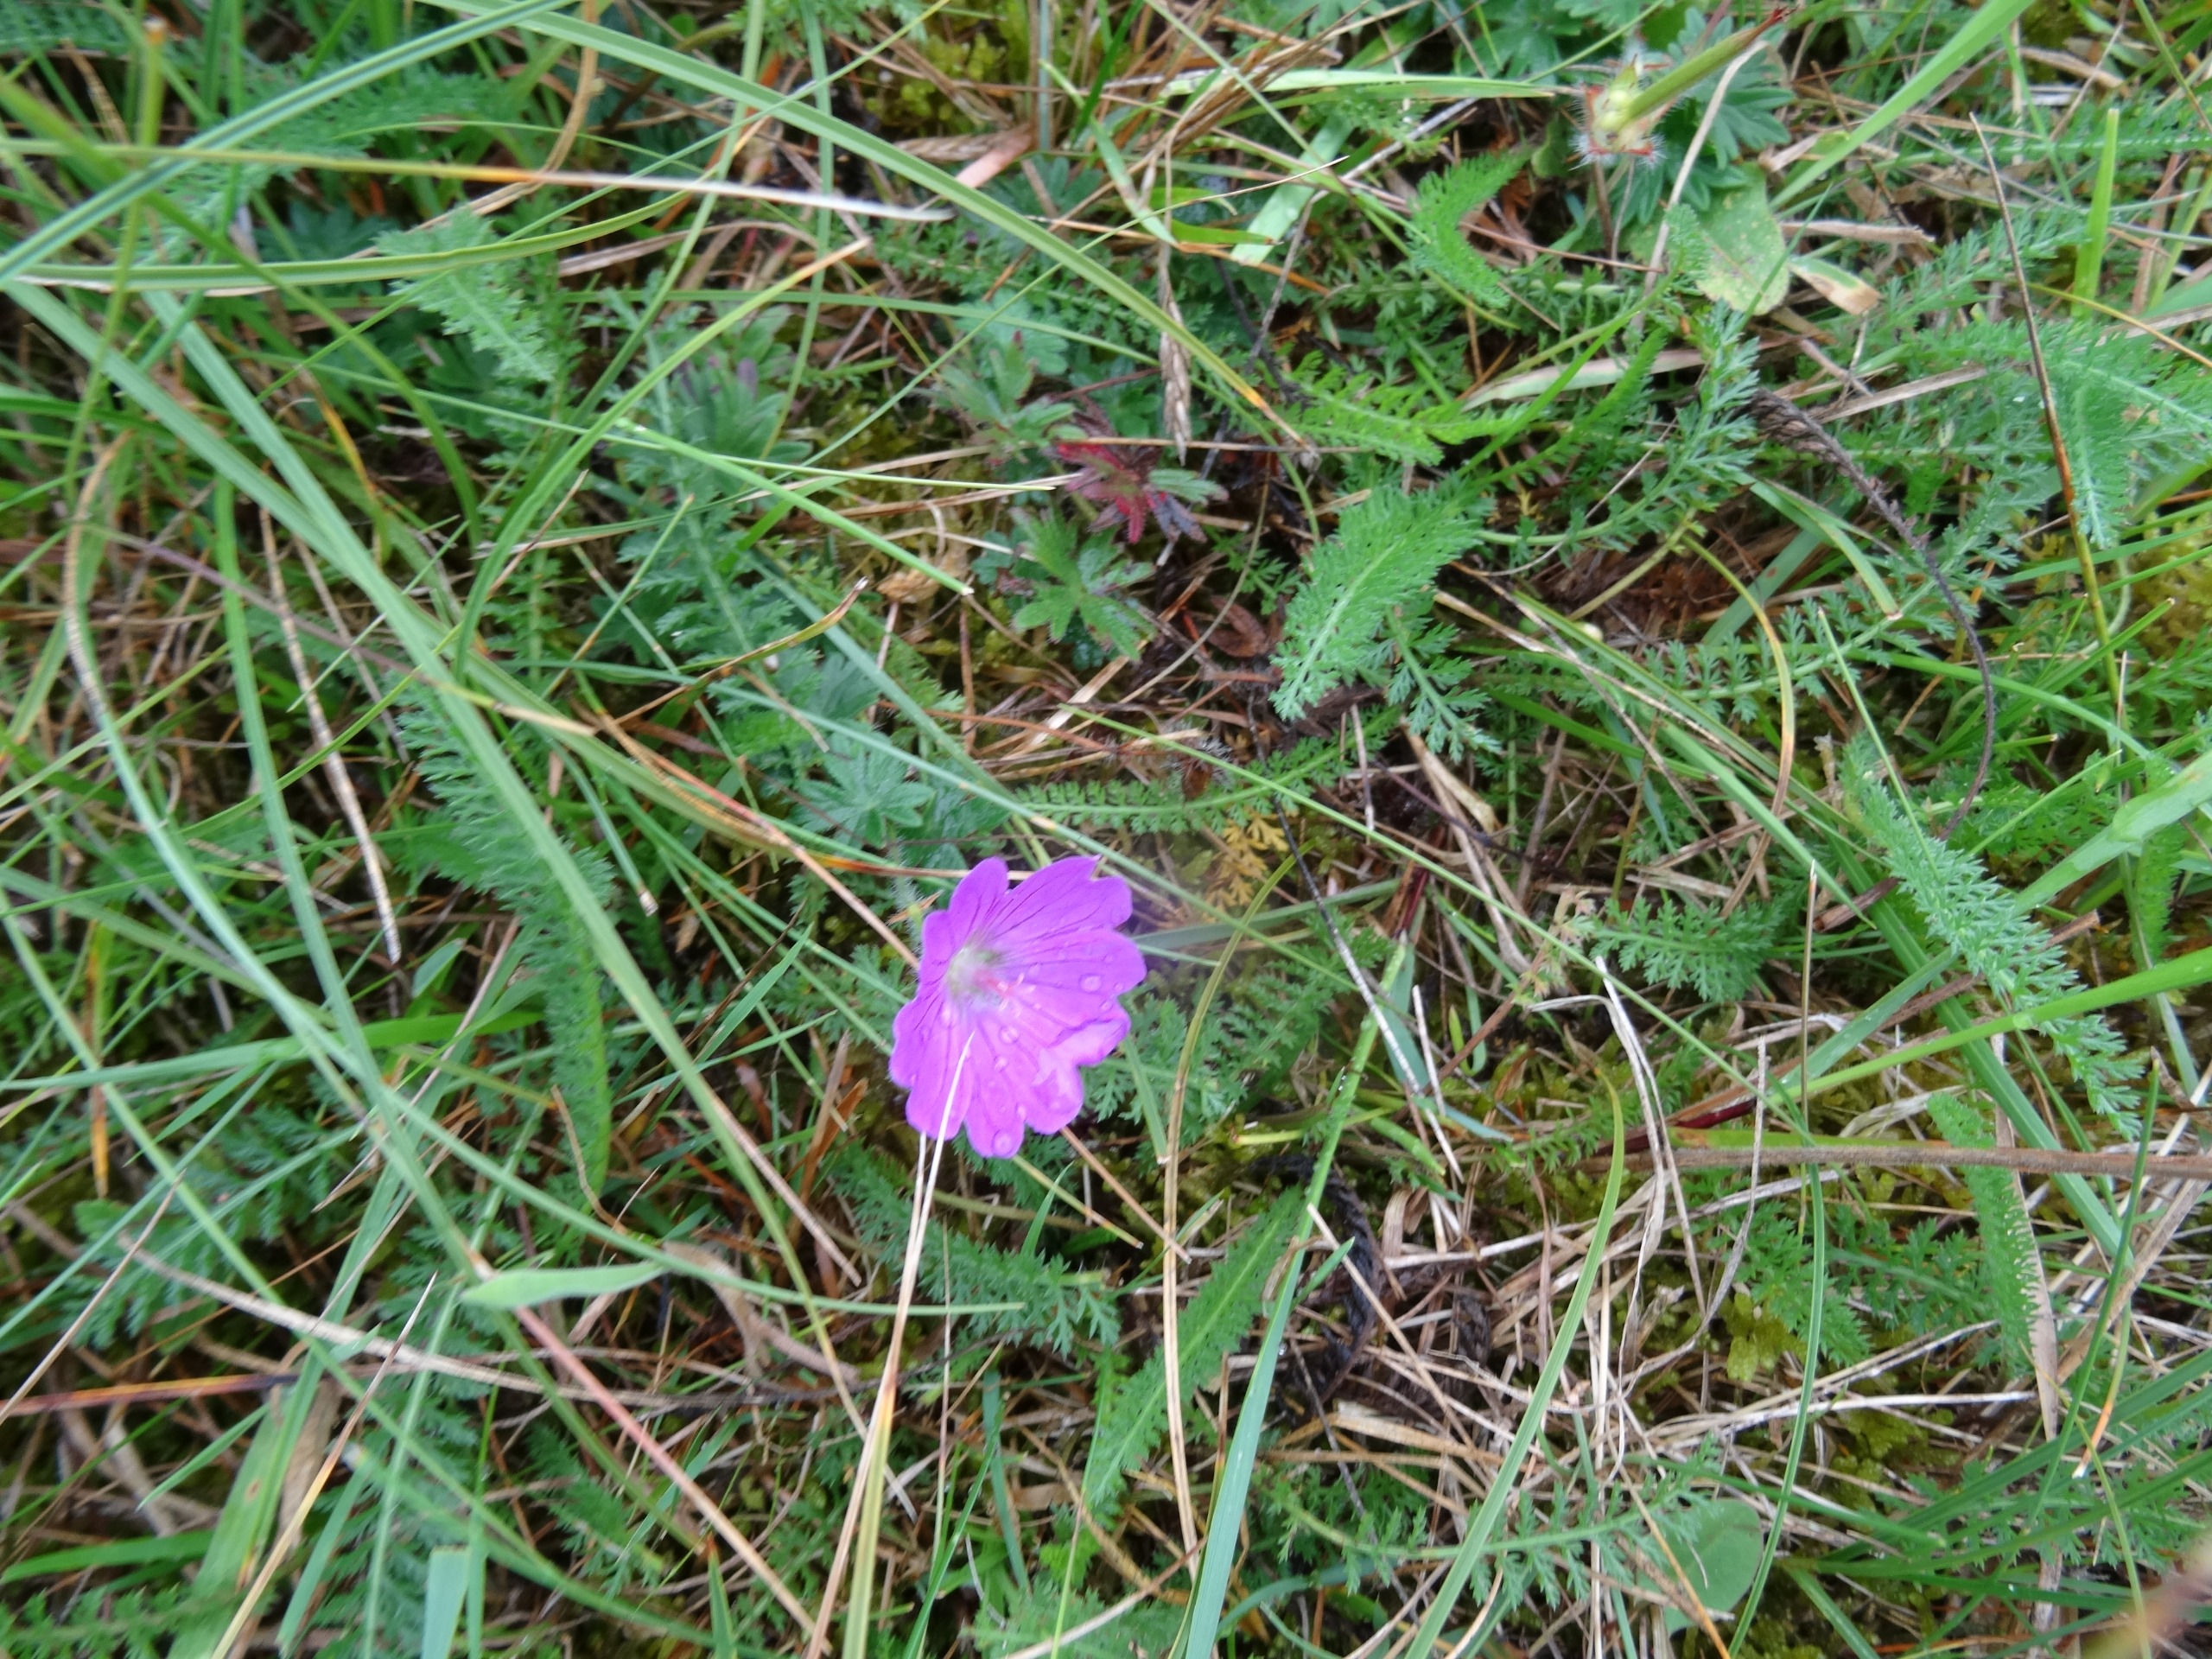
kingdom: Plantae
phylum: Tracheophyta
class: Magnoliopsida
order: Geraniales
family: Geraniaceae
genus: Geranium
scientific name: Geranium sanguineum
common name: Blodrød storkenæb
